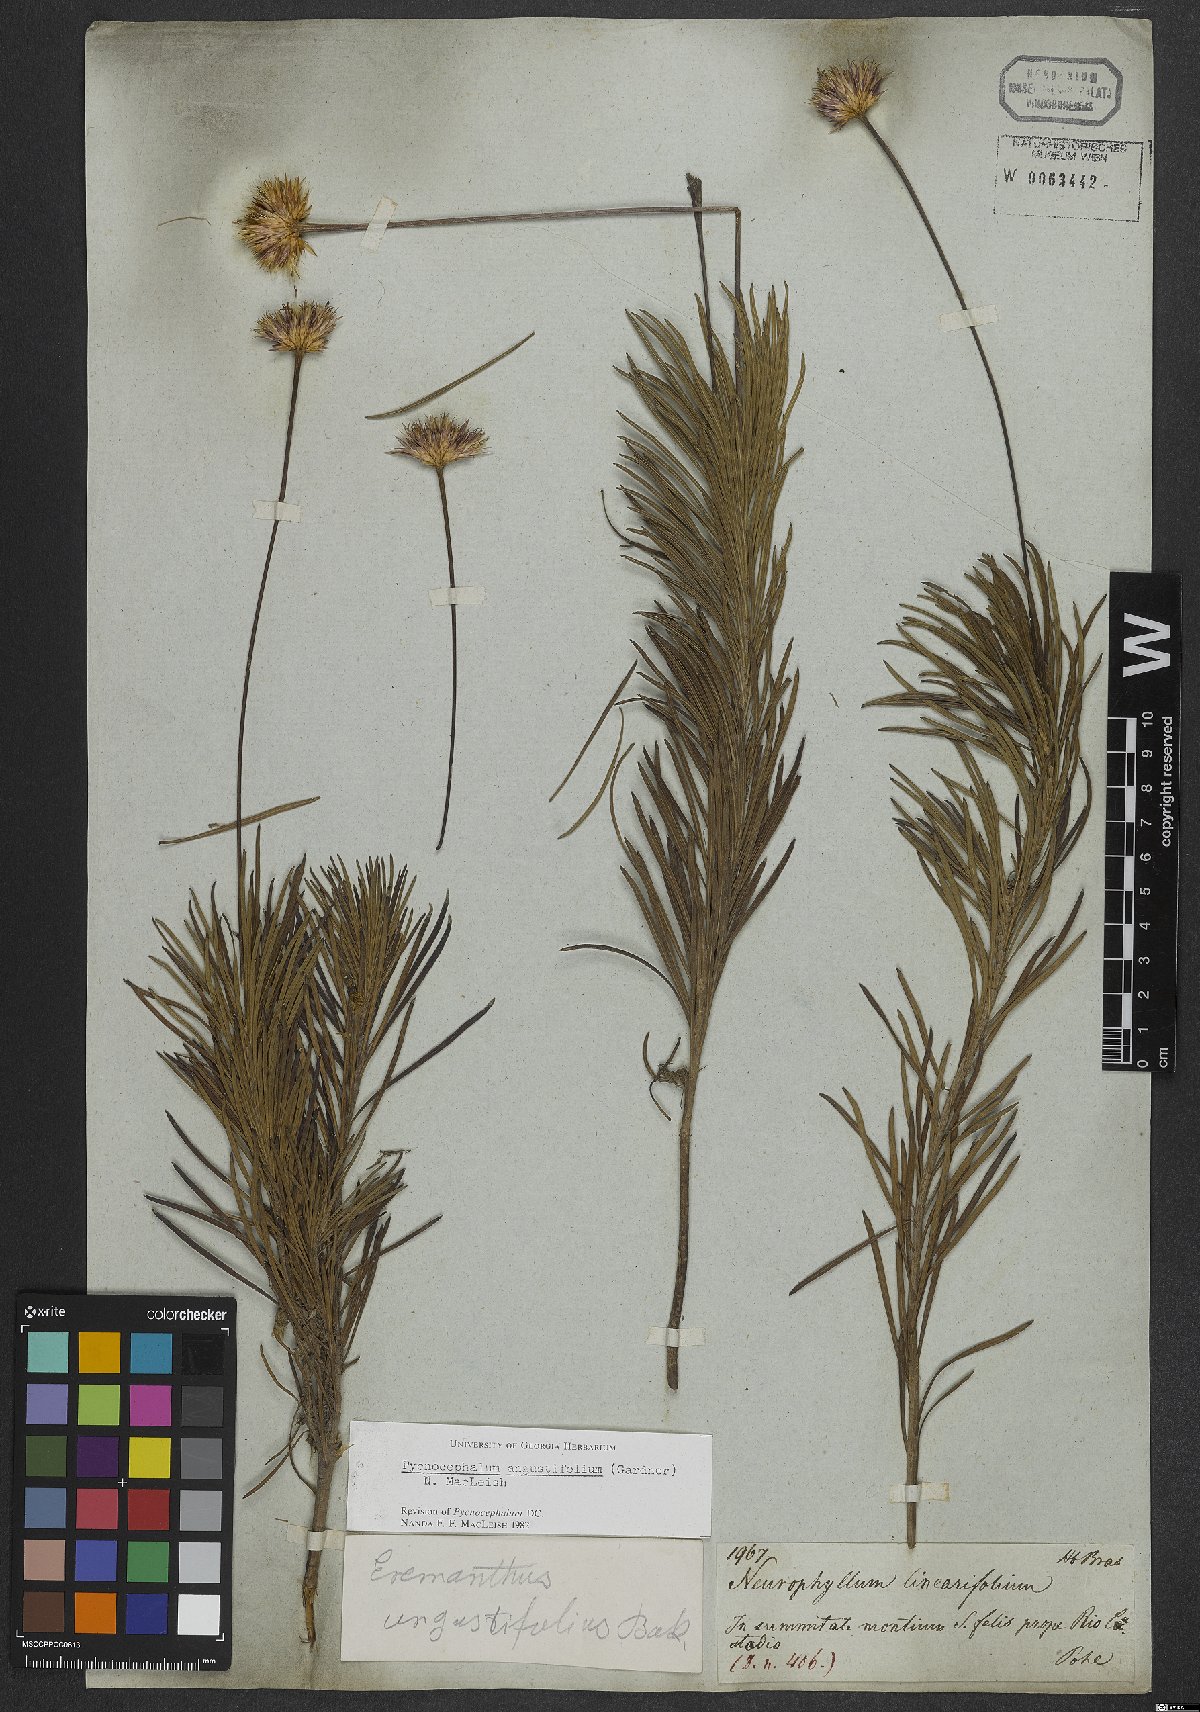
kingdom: Plantae
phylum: Tracheophyta
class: Magnoliopsida
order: Asterales
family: Asteraceae
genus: Chresta
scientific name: Chresta angustifolia
